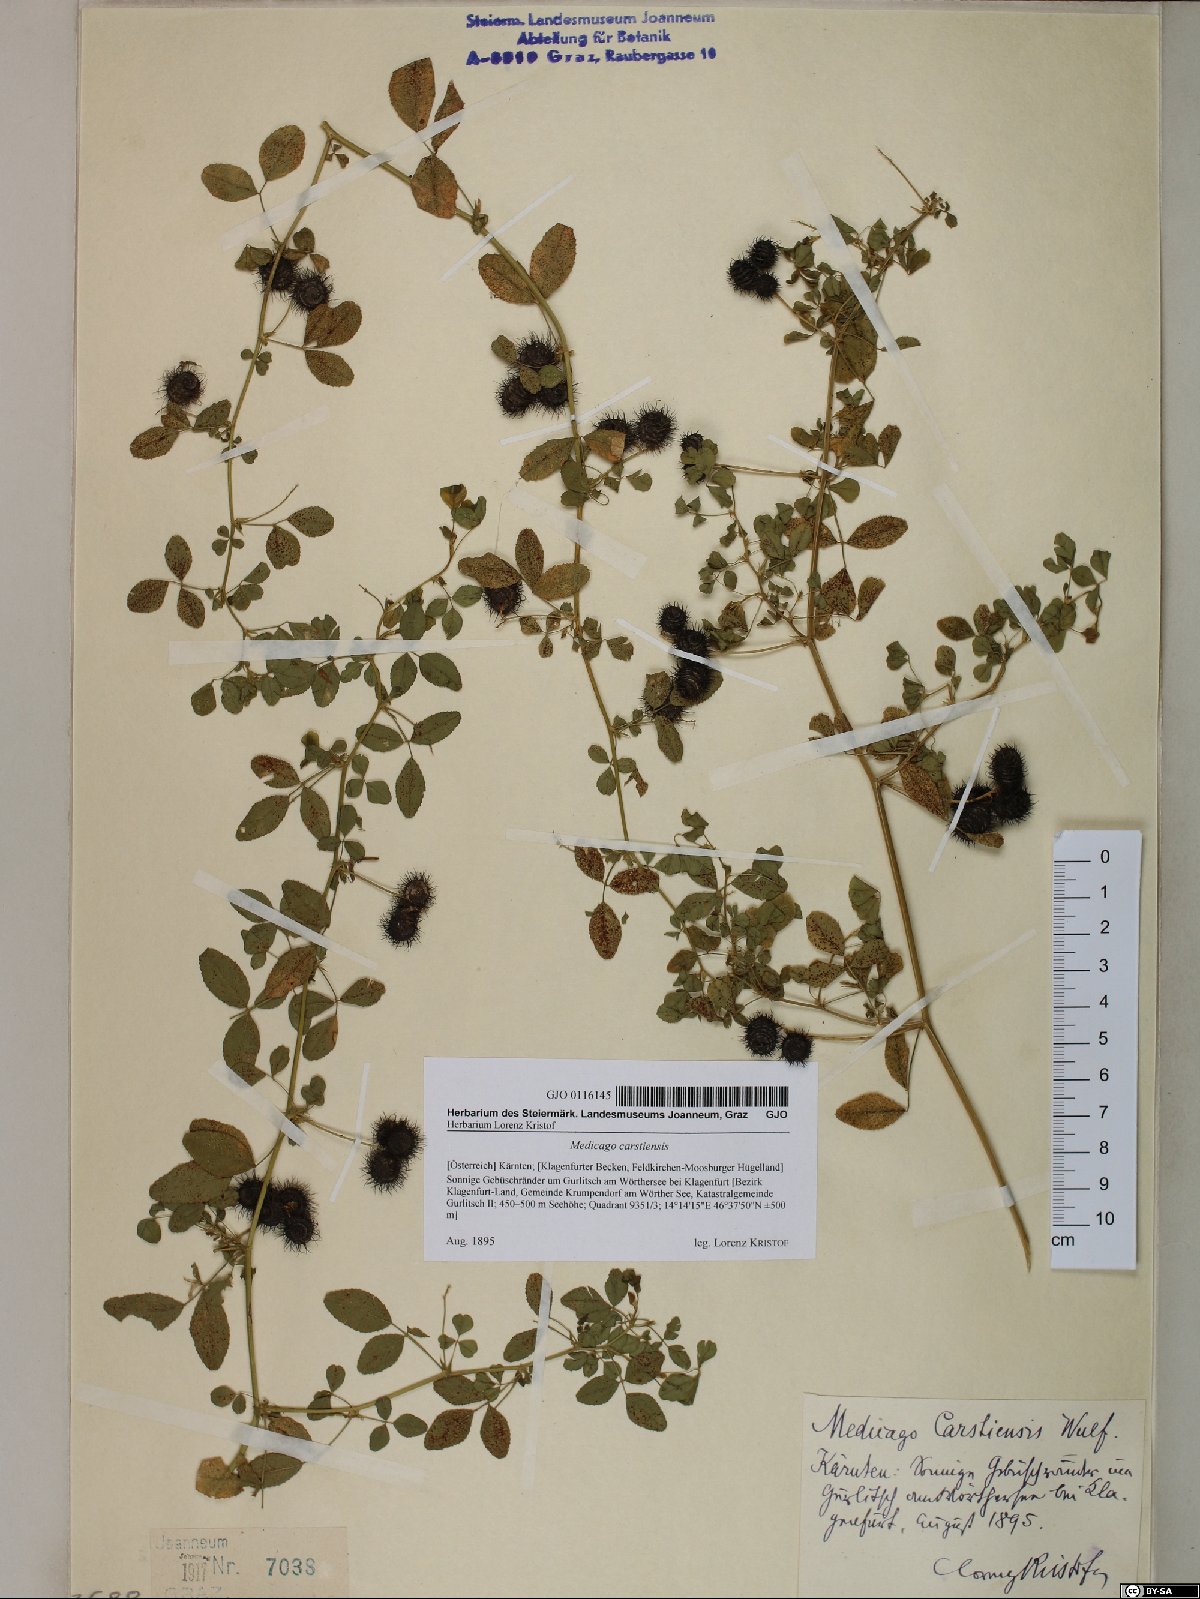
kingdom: Plantae
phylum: Tracheophyta
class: Magnoliopsida
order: Fabales
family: Fabaceae
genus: Medicago
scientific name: Medicago carstiensis
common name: Creeping-rooted medic
